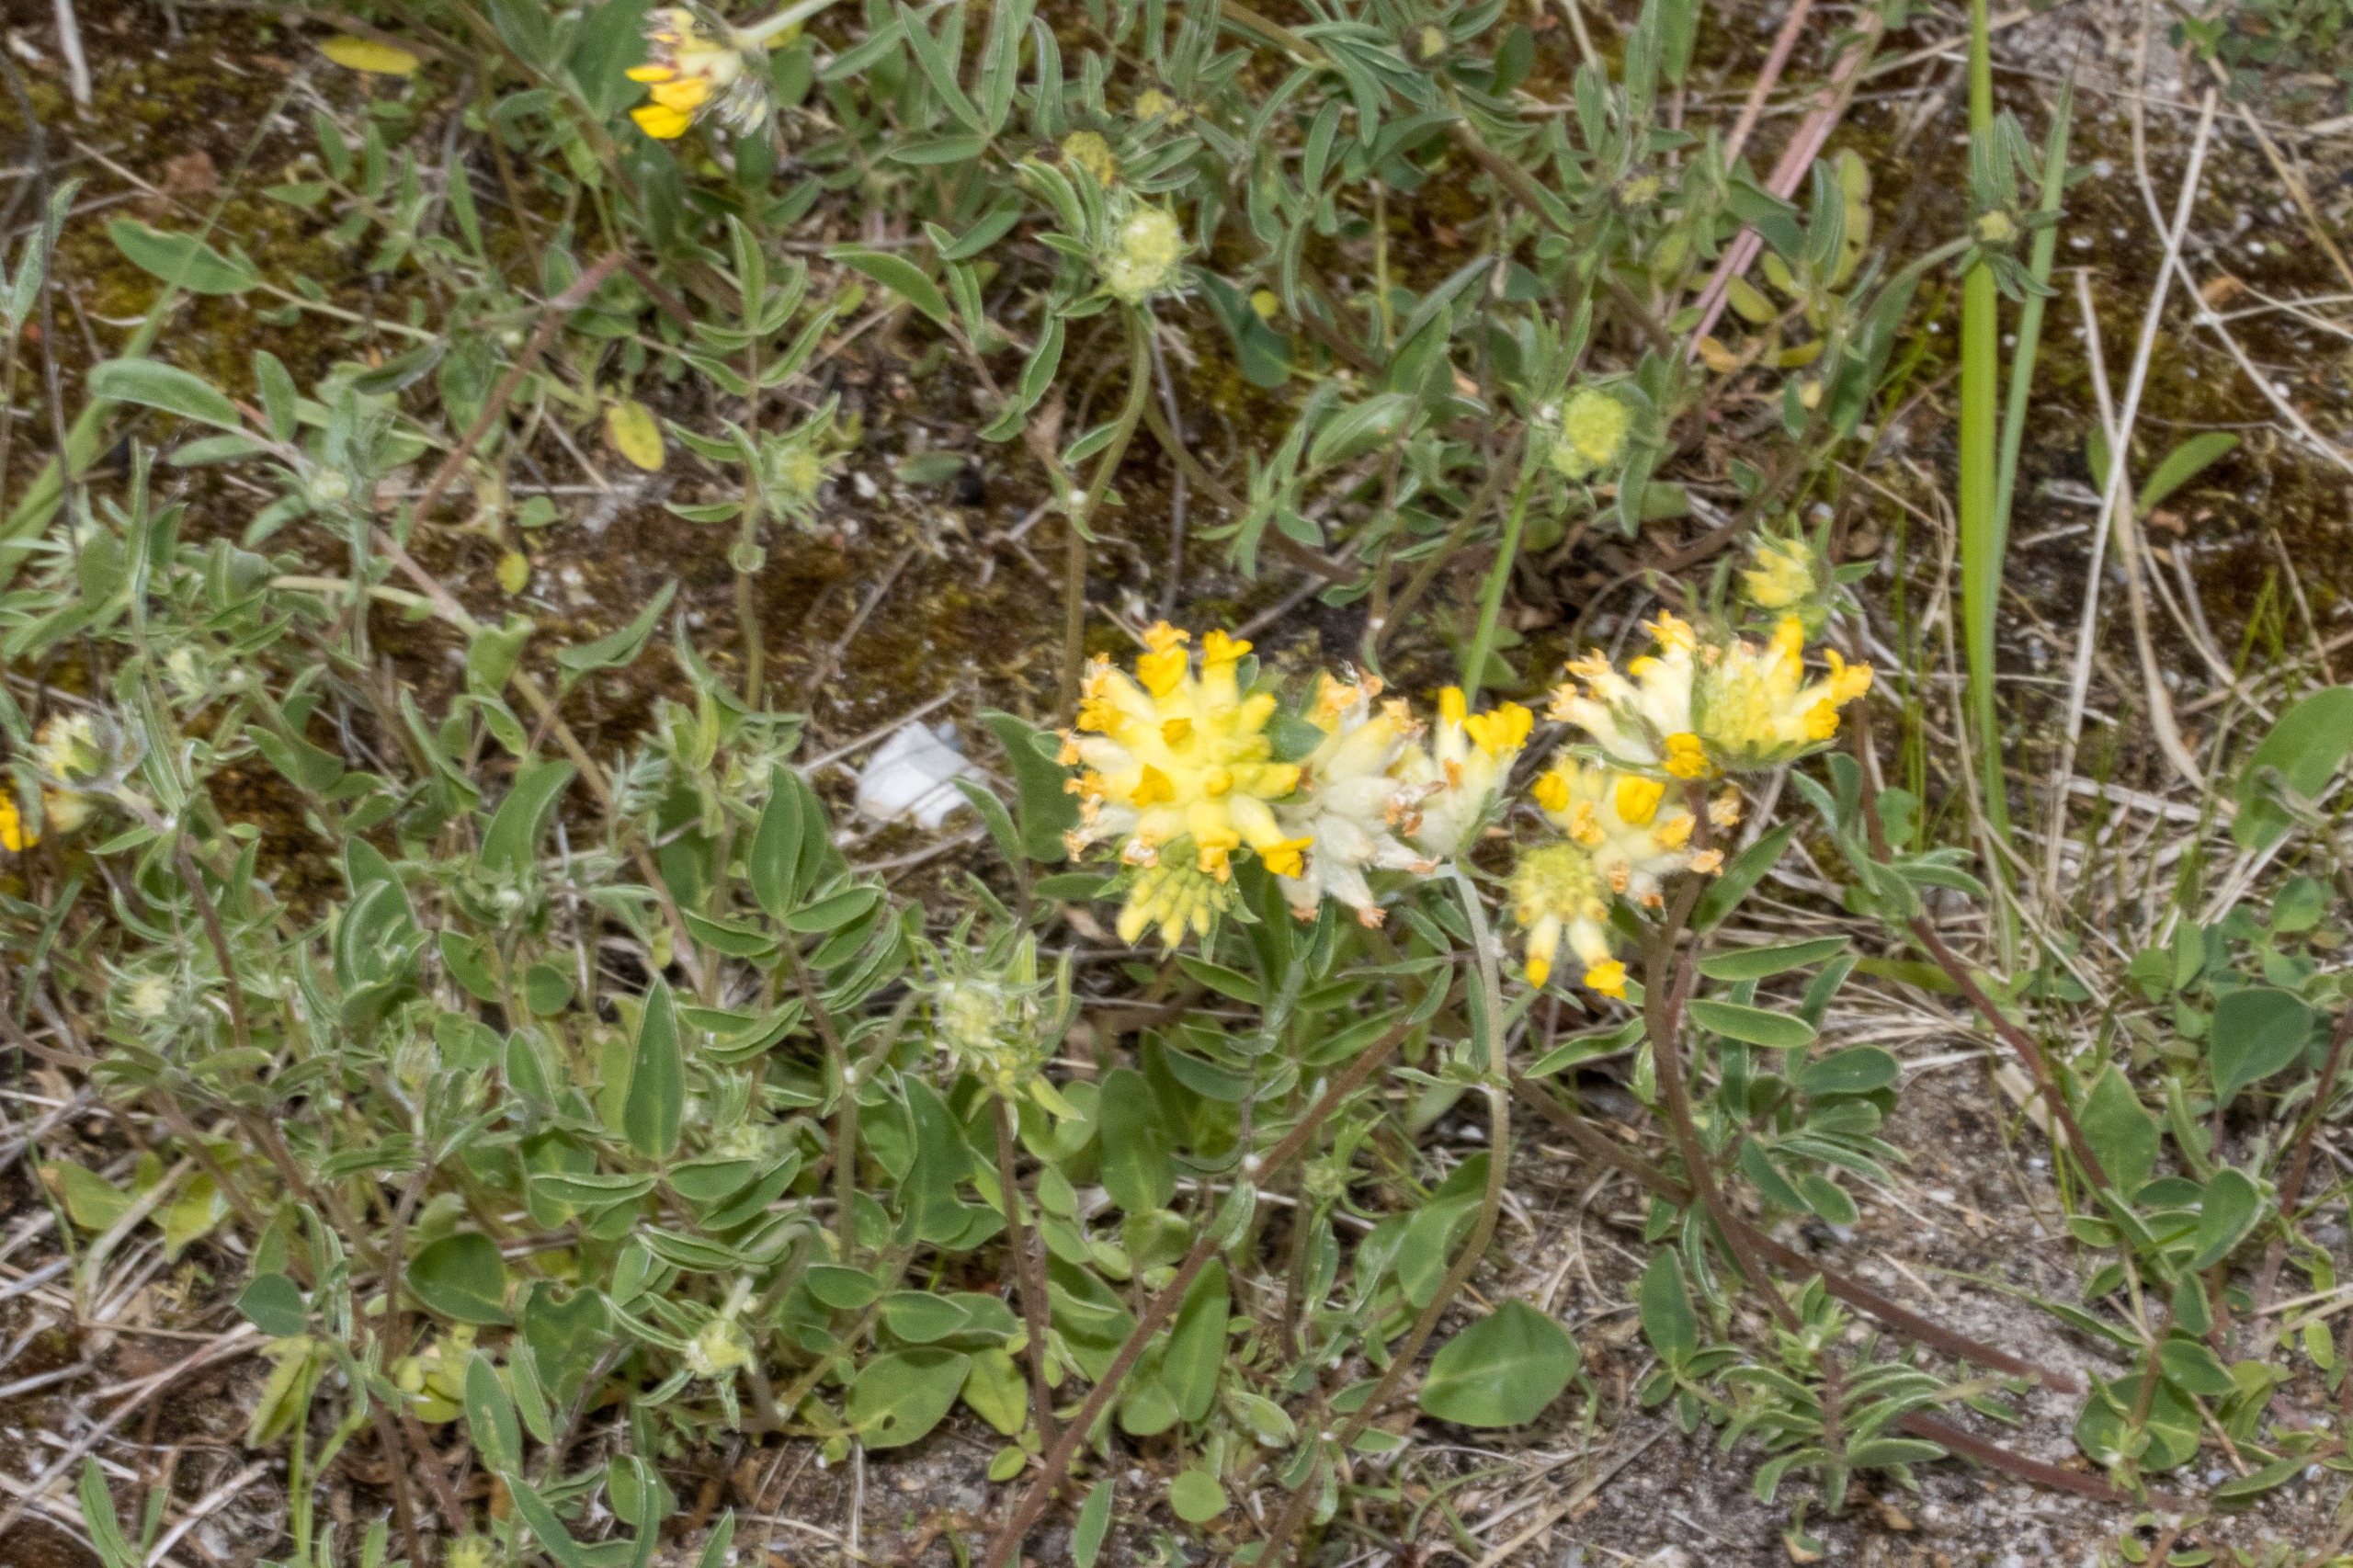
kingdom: Plantae
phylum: Tracheophyta
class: Magnoliopsida
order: Fabales
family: Fabaceae
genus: Anthyllis
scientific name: Anthyllis vulneraria
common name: Rundbælg
